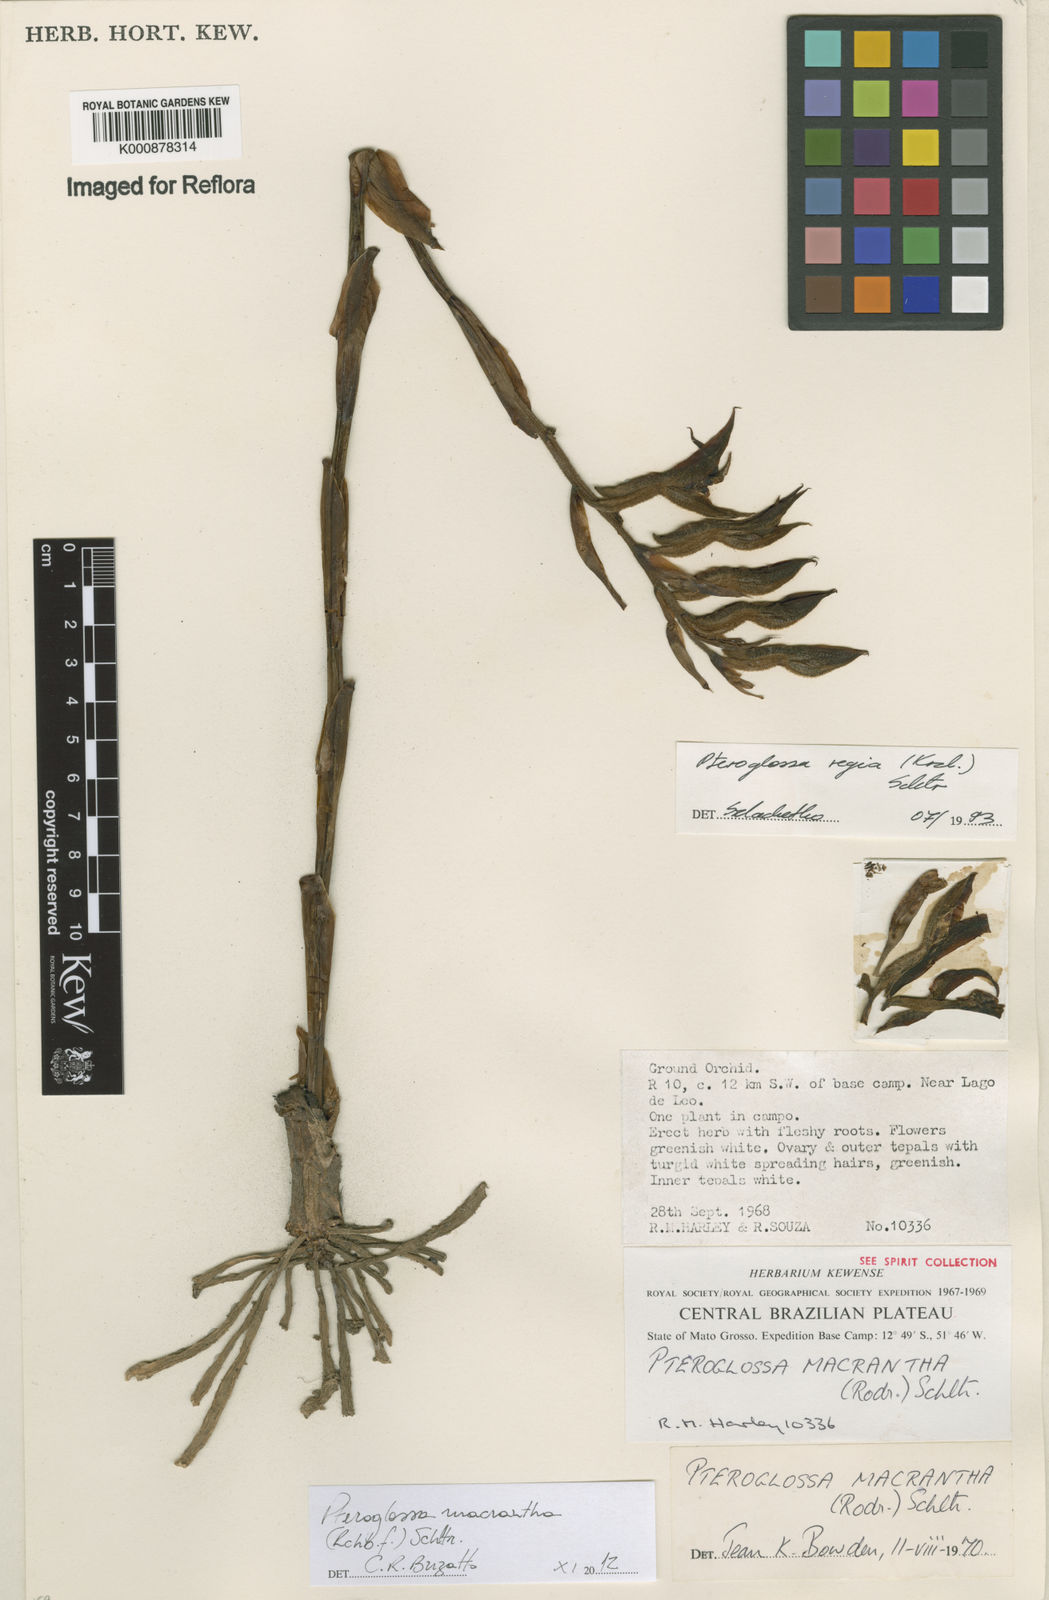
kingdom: Plantae
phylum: Tracheophyta
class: Liliopsida
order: Asparagales
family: Orchidaceae
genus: Pteroglossa
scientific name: Pteroglossa macrantha
